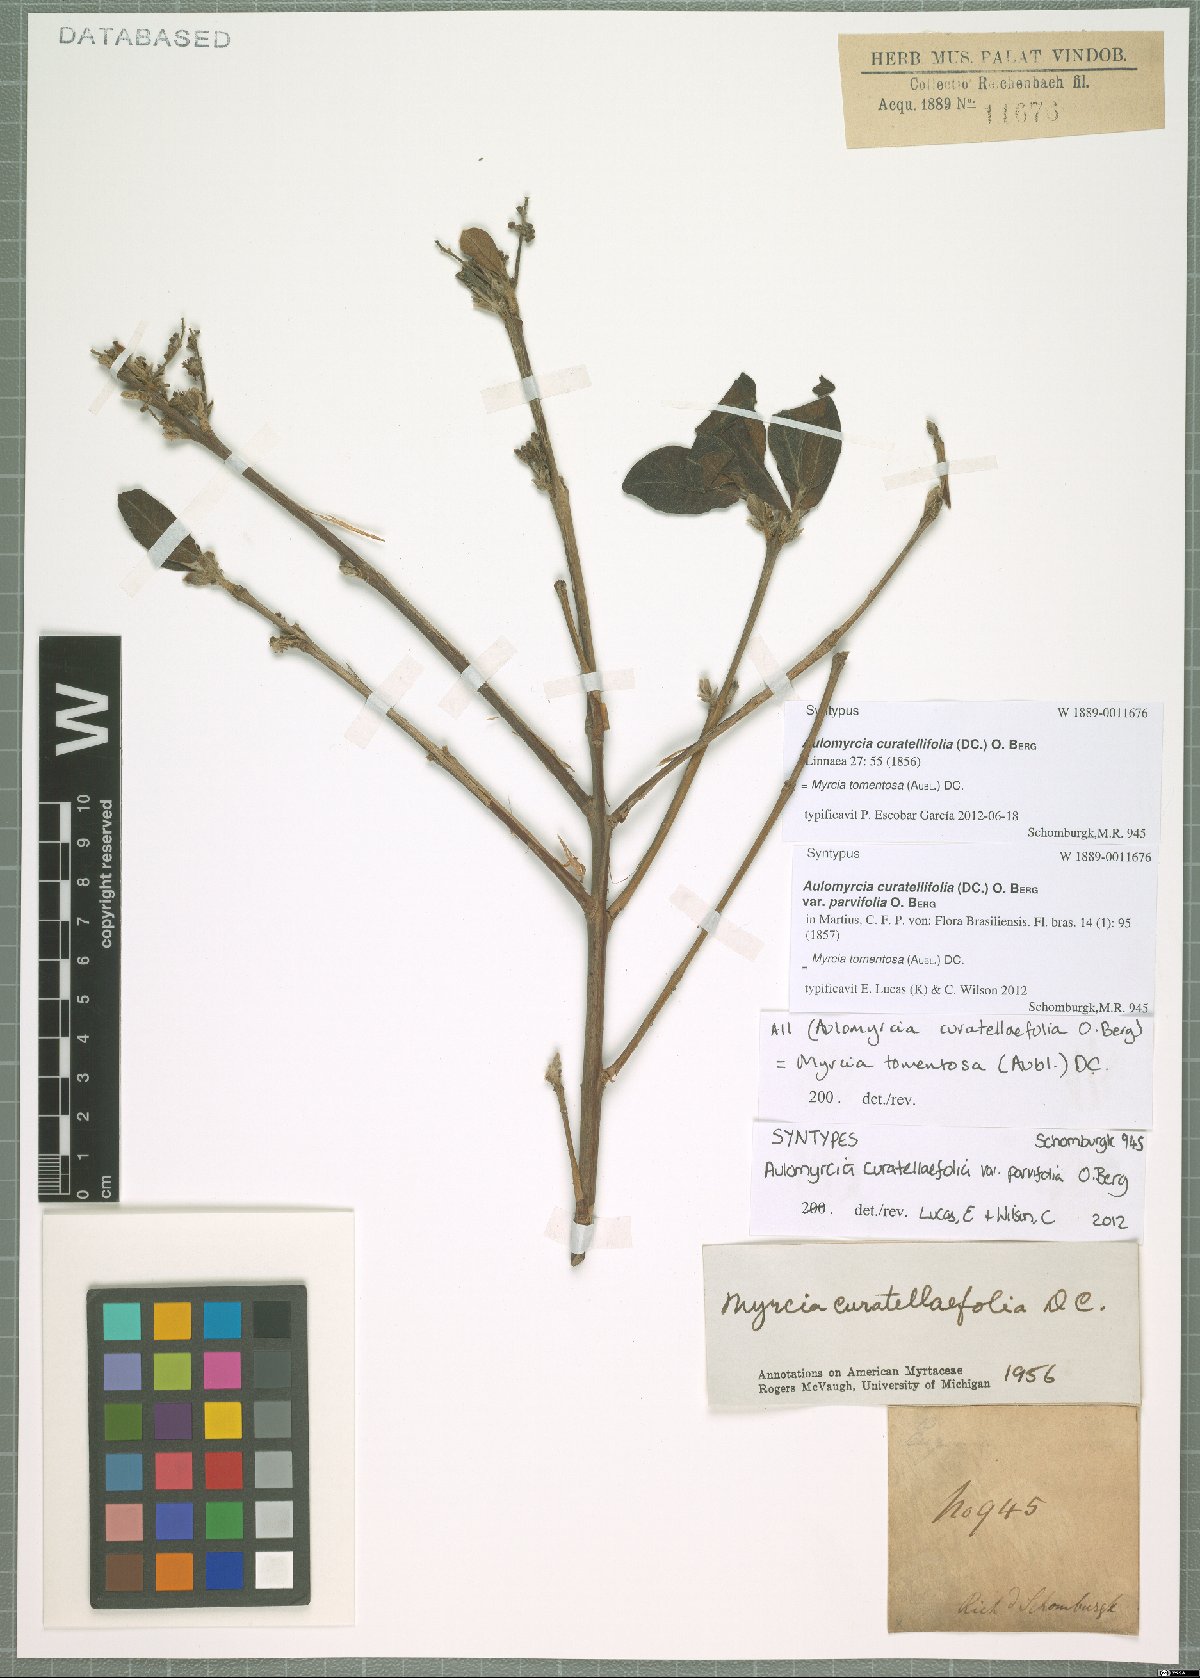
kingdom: Plantae
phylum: Tracheophyta
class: Magnoliopsida
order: Myrtales
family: Myrtaceae
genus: Myrcia
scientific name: Myrcia tomentosa
